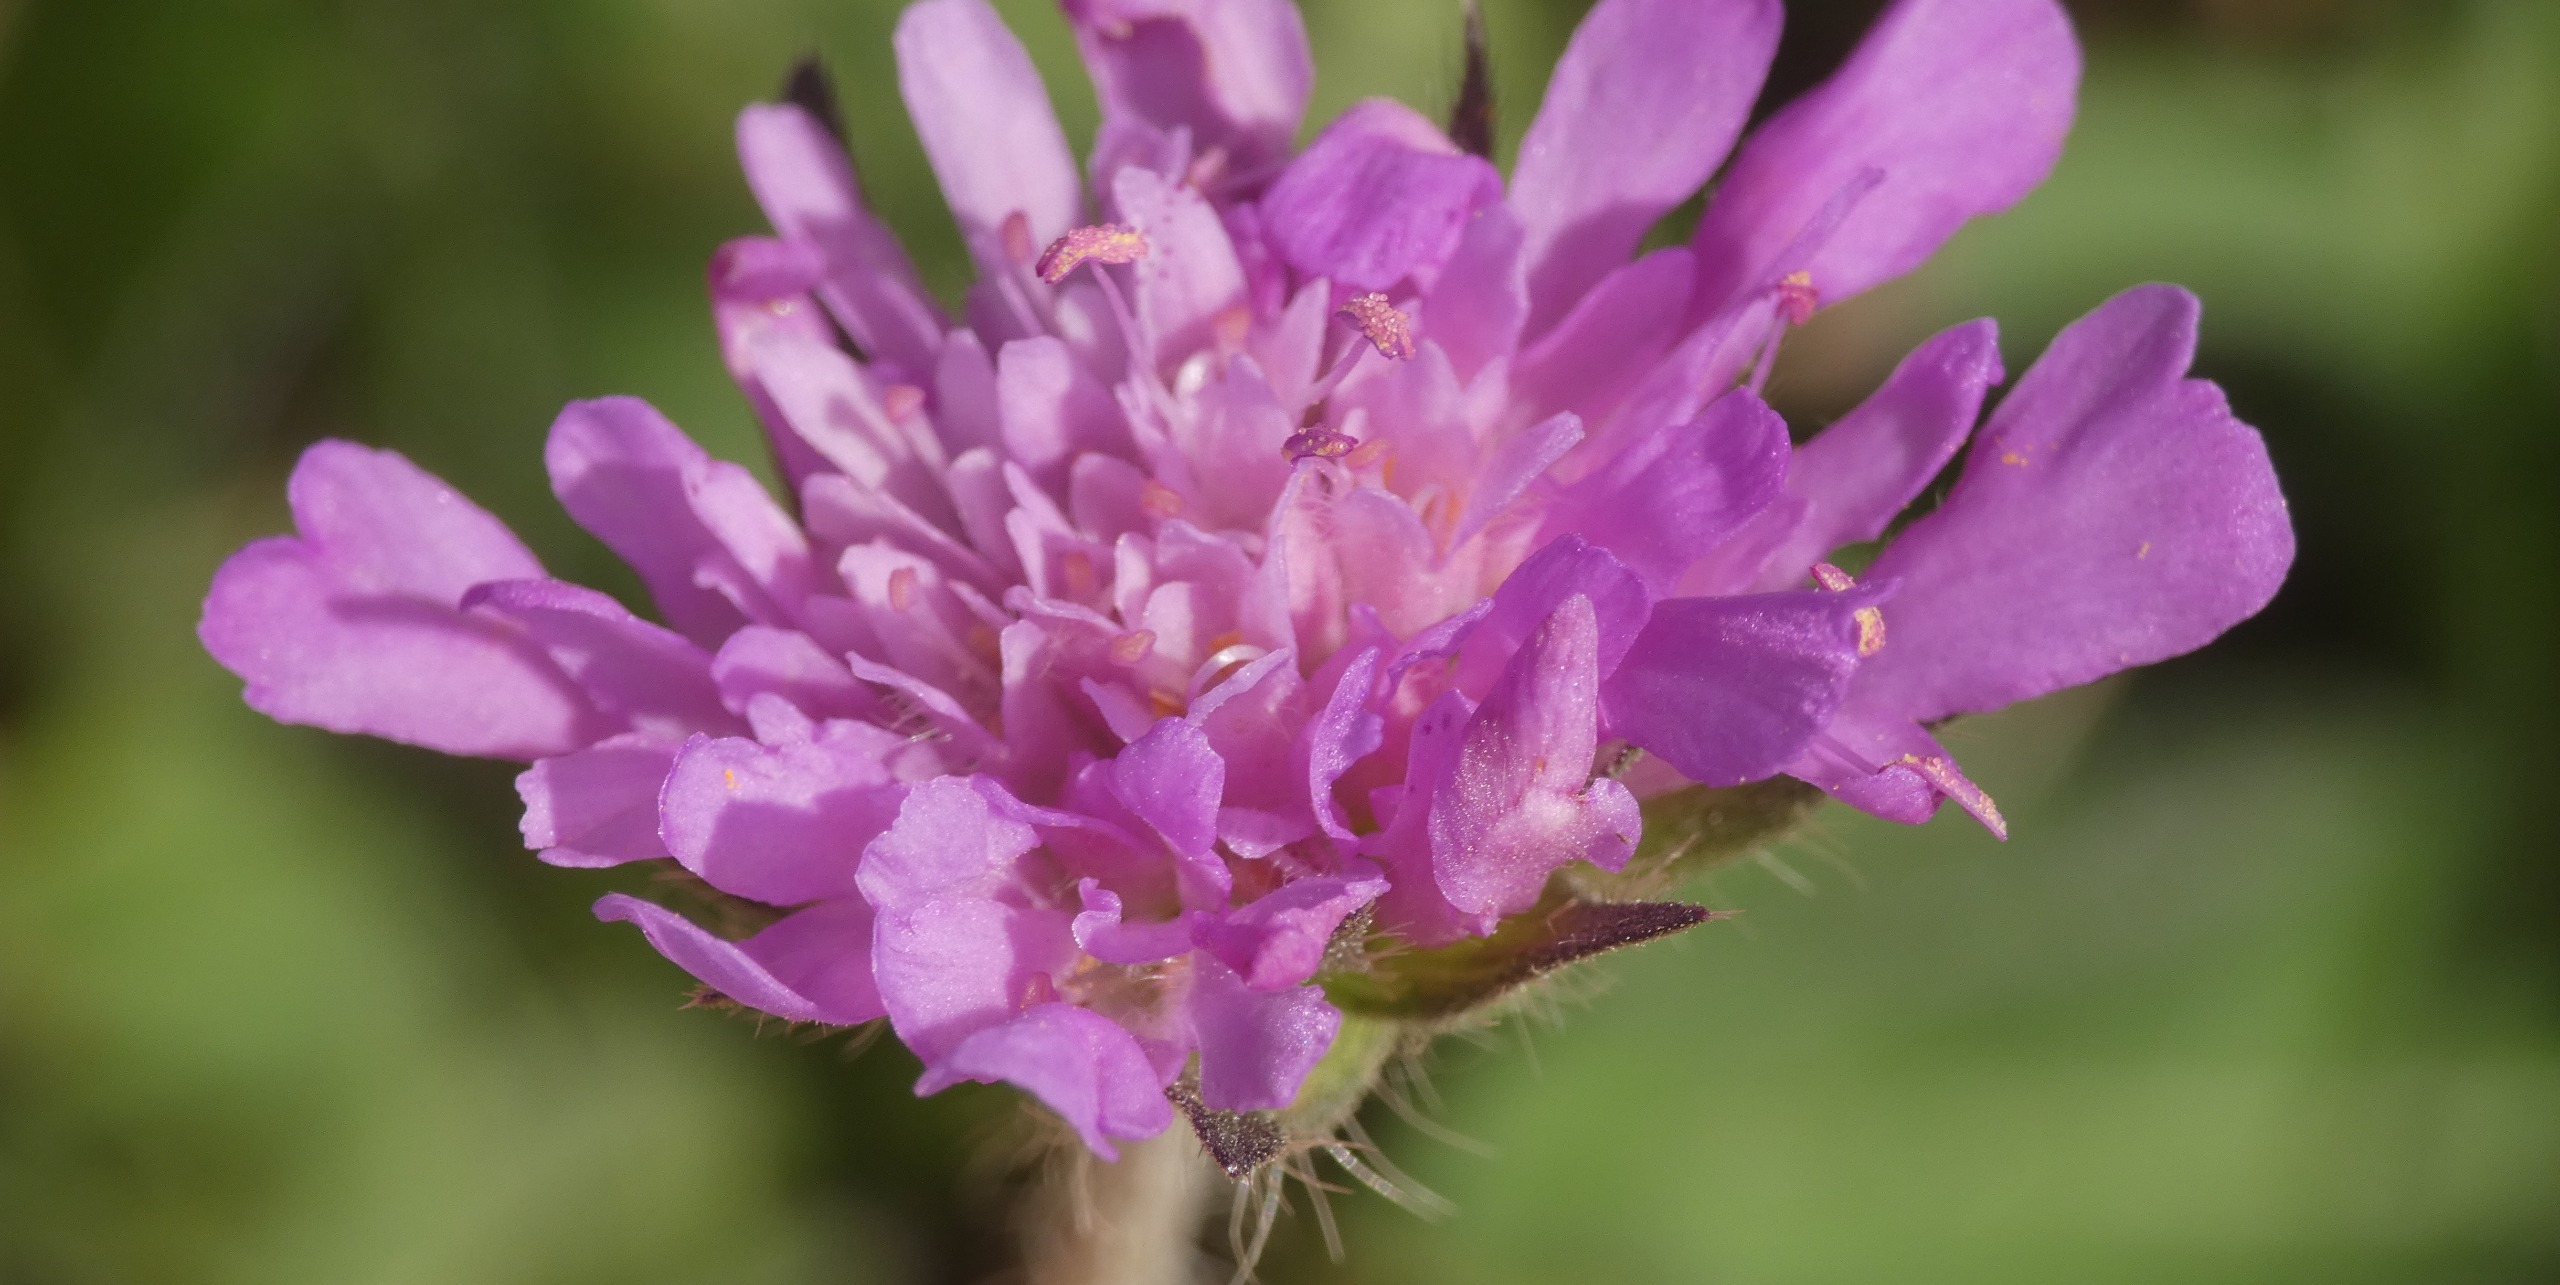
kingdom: Plantae
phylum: Tracheophyta
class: Magnoliopsida
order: Dipsacales
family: Caprifoliaceae
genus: Knautia
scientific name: Knautia arvensis
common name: Blåhat
